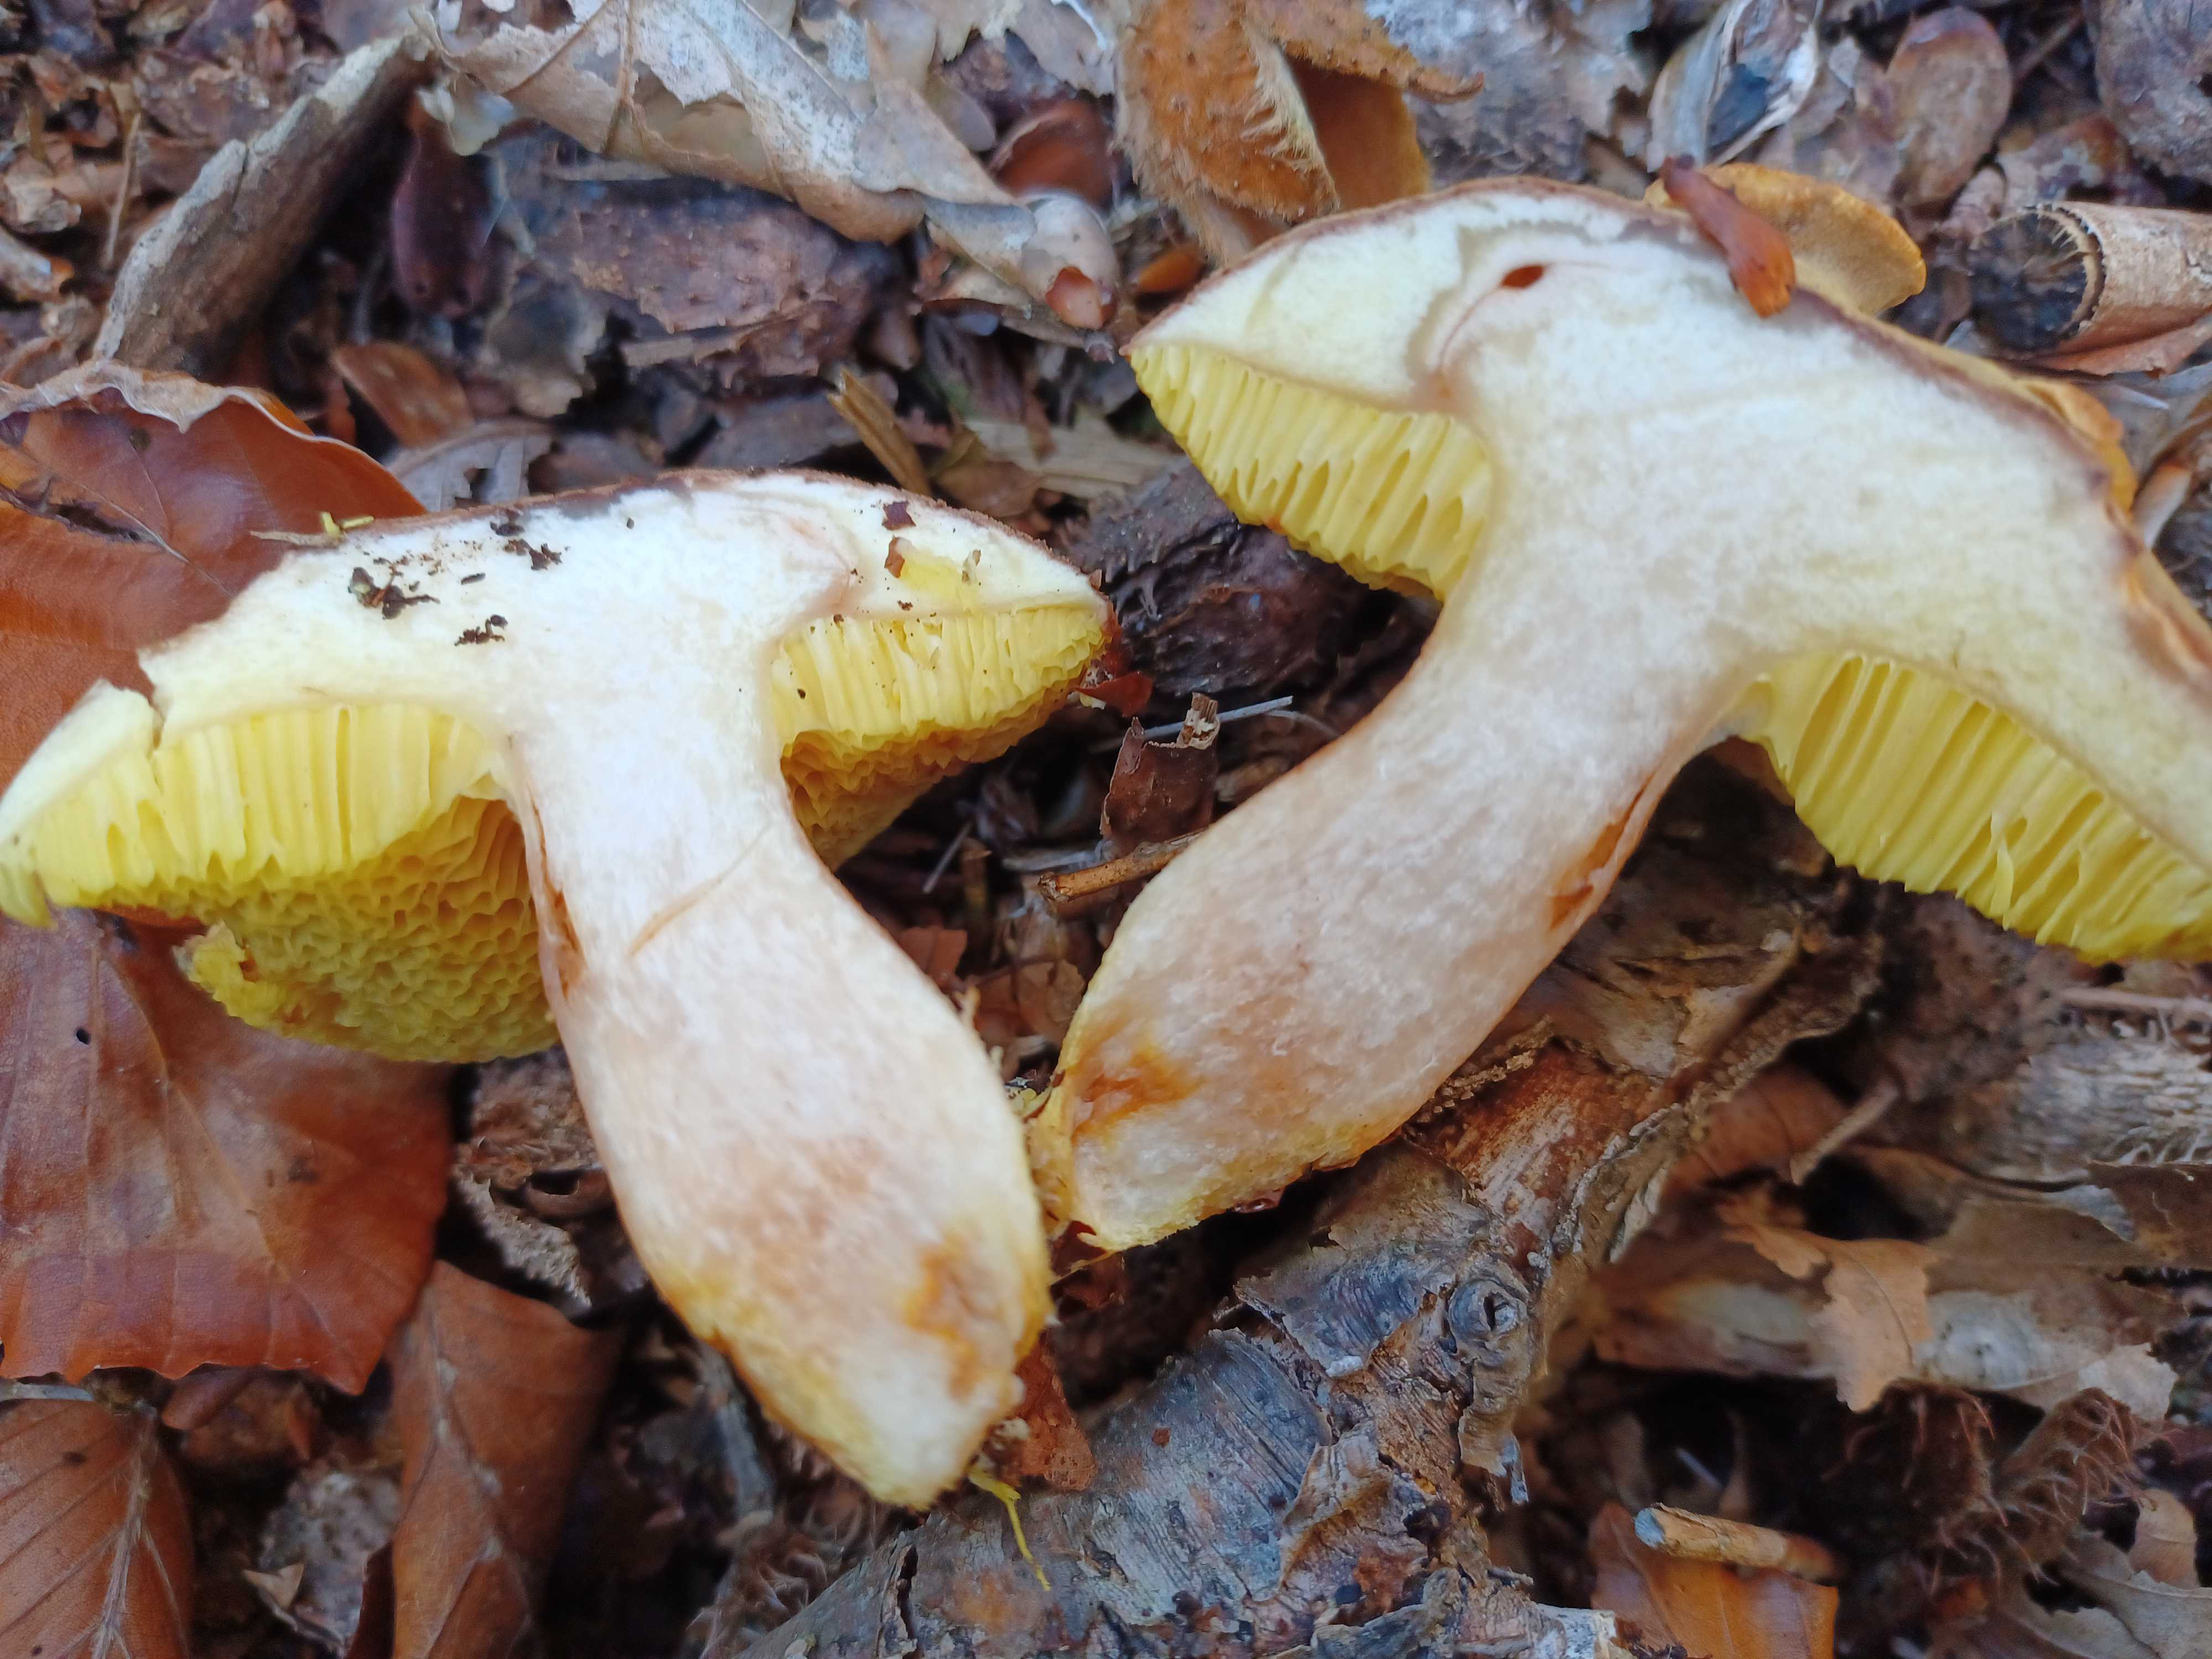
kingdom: Fungi
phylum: Basidiomycota
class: Agaricomycetes
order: Boletales
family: Boletaceae
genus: Xerocomus
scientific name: Xerocomus ferrugineus
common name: vaskeskinds-rørhat
